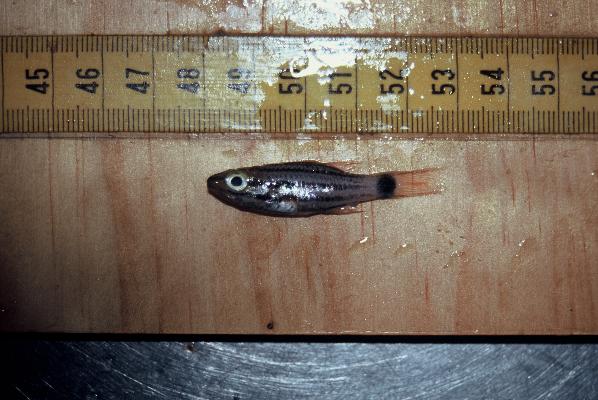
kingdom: Animalia
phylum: Chordata
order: Perciformes
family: Apogonidae
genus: Cheilodipterus
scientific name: Cheilodipterus macrodon
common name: Eight-lined cardinalfish
